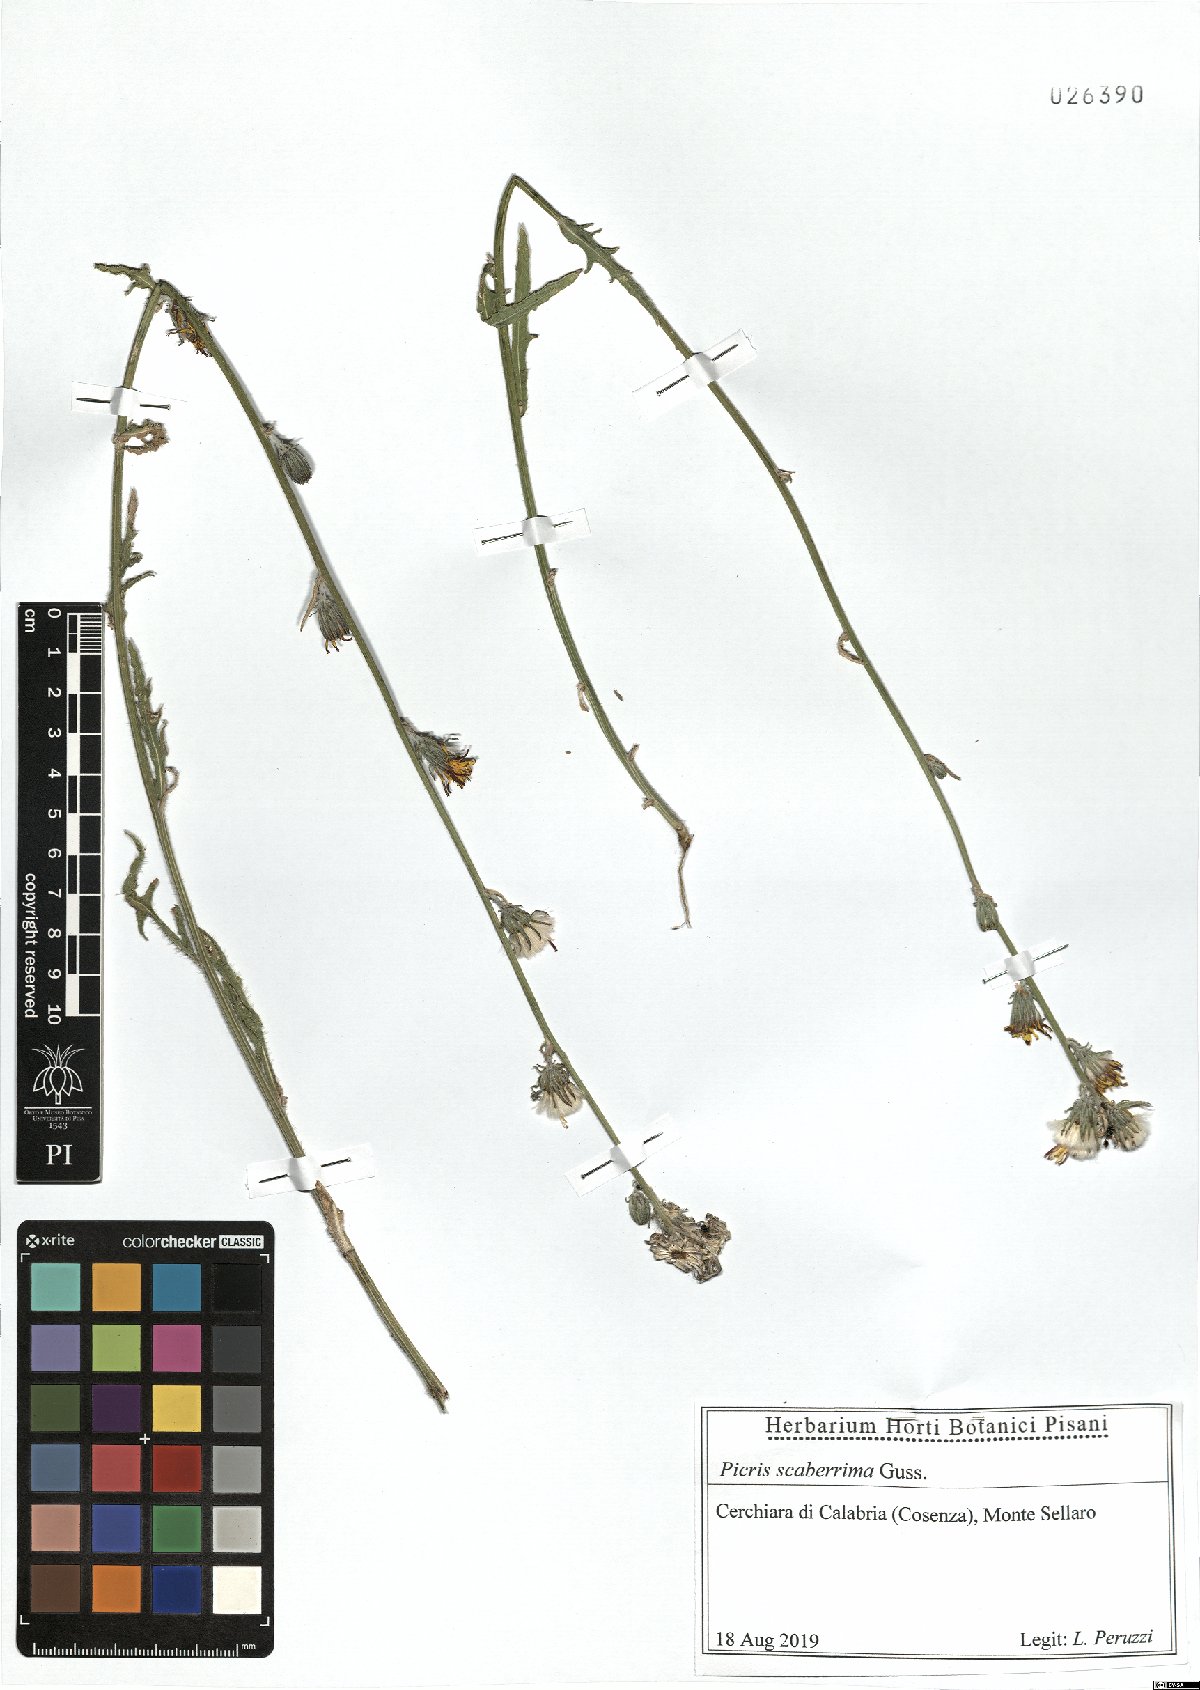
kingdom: Plantae
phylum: Tracheophyta
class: Magnoliopsida
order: Asterales
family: Asteraceae
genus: Picris
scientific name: Picris scaberrima
